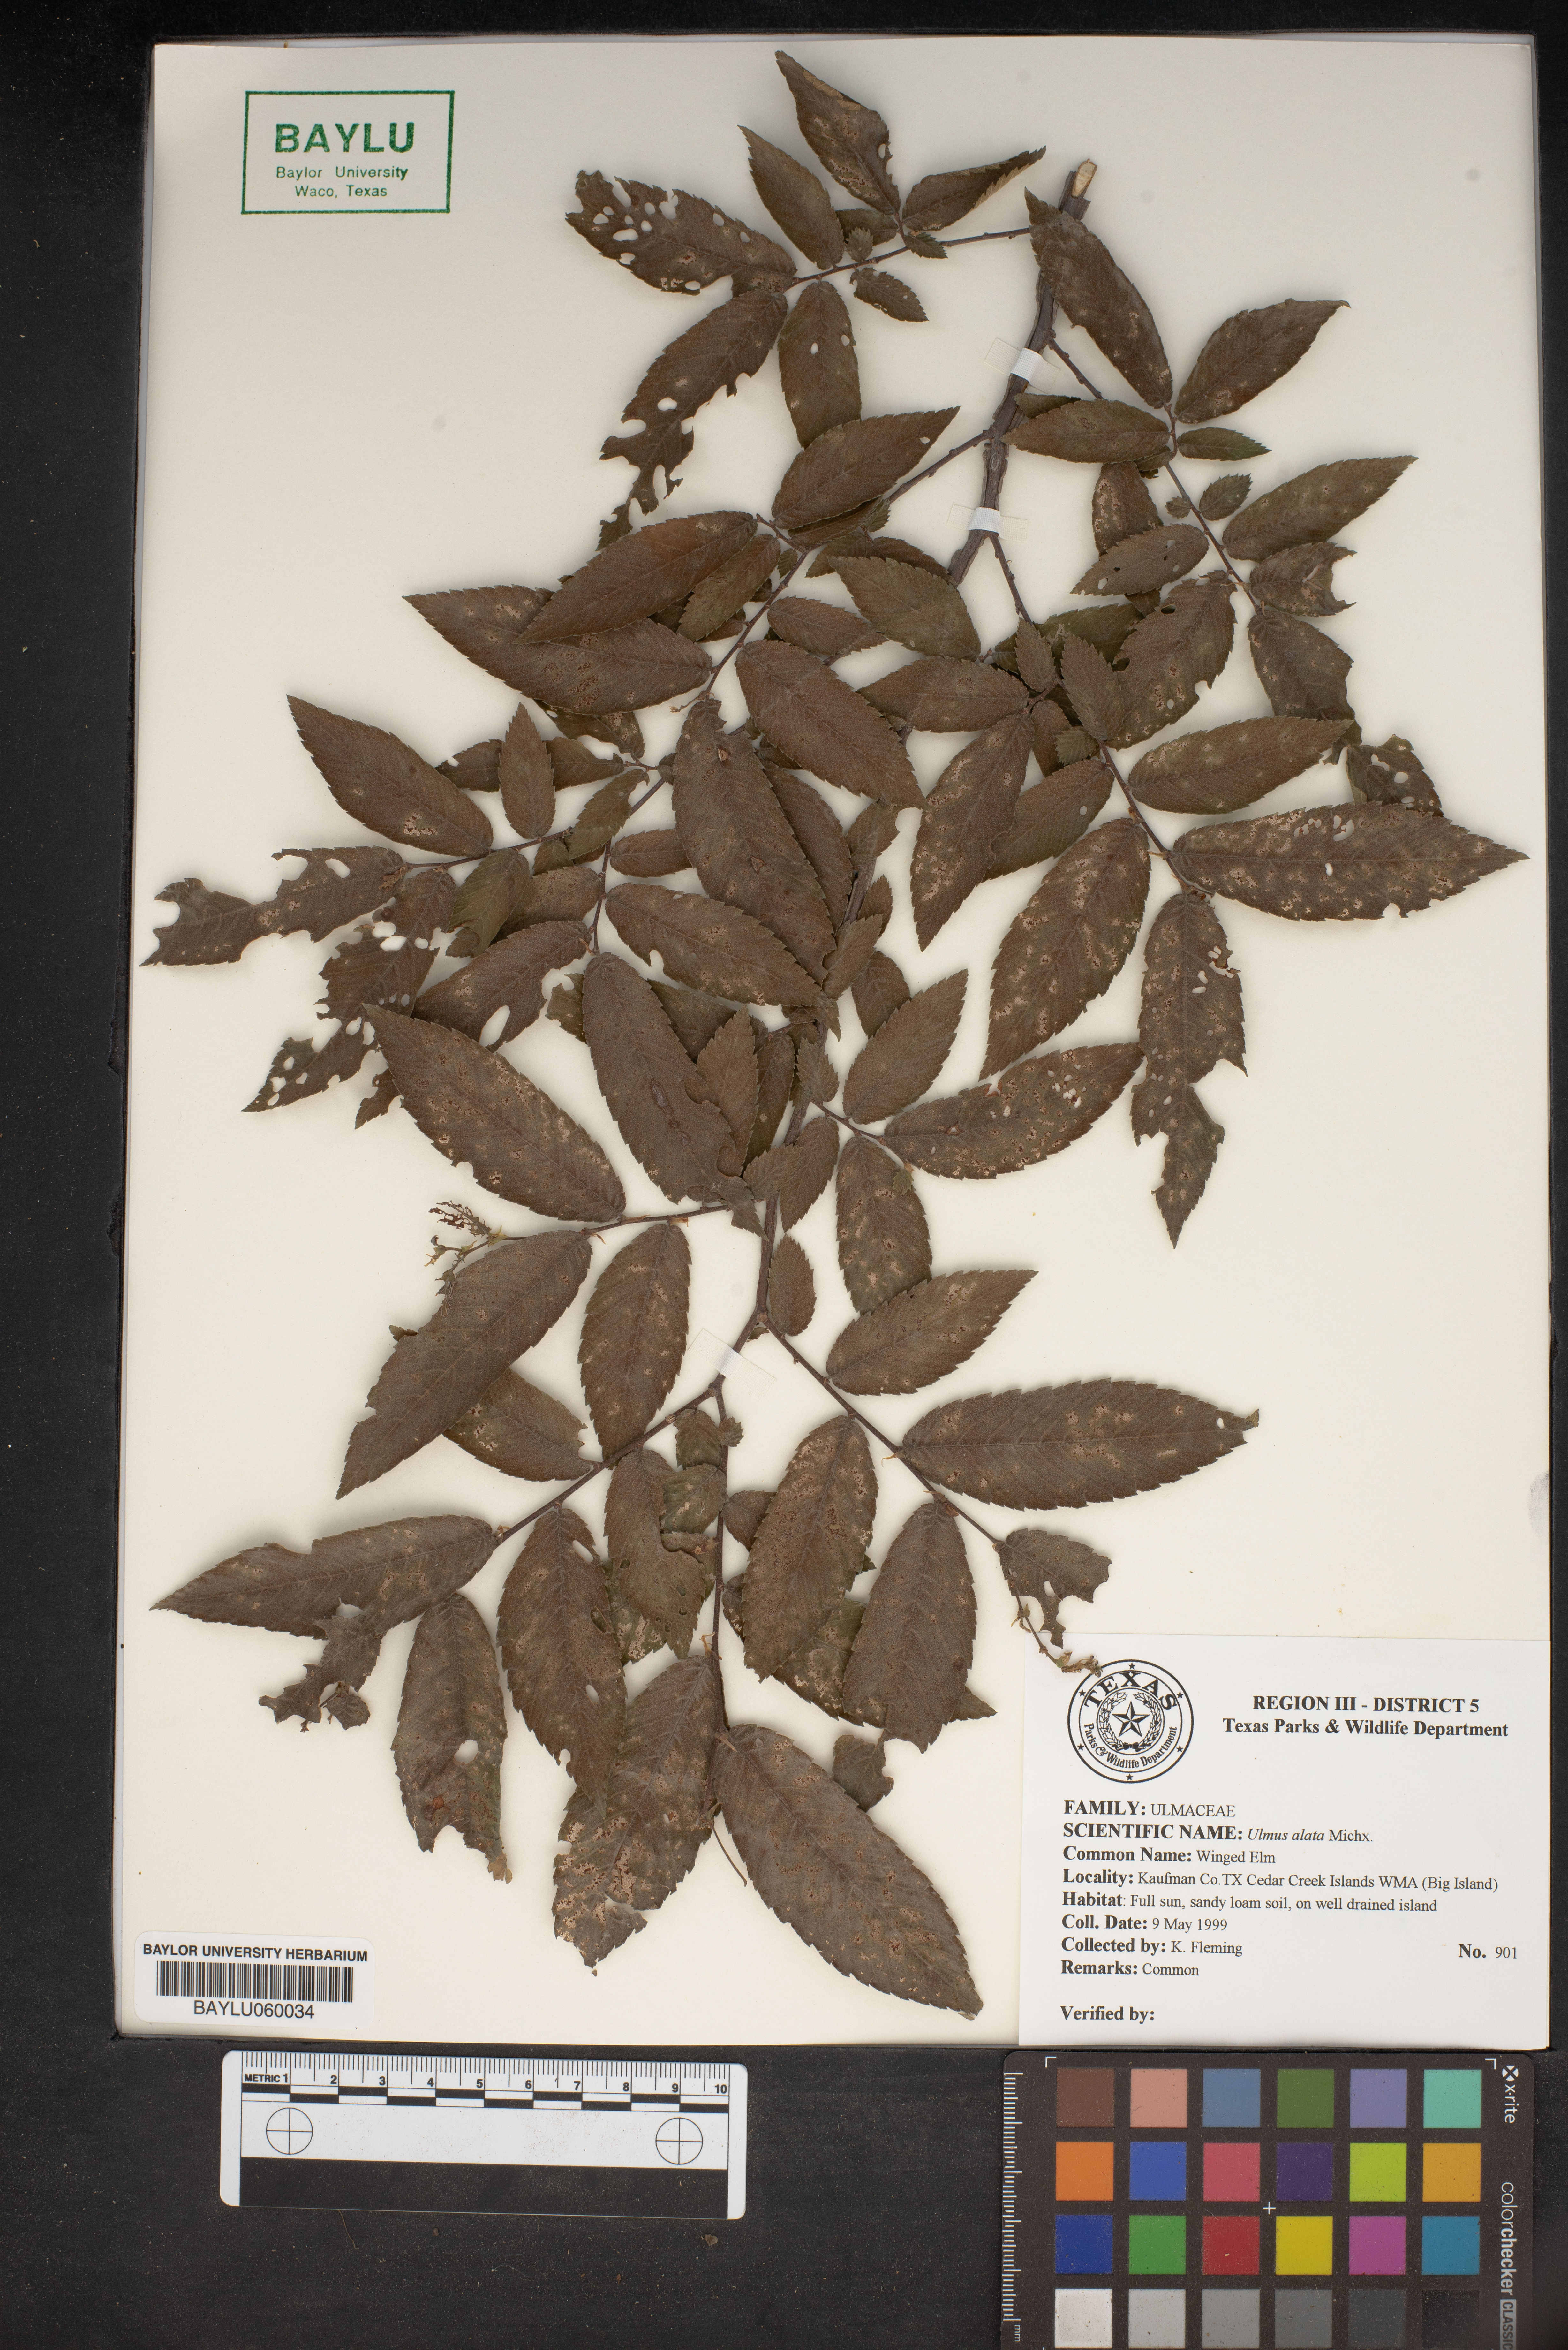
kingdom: Plantae
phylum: Tracheophyta
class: Magnoliopsida
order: Rosales
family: Ulmaceae
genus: Ulmus
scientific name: Ulmus alata
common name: Winged elm
